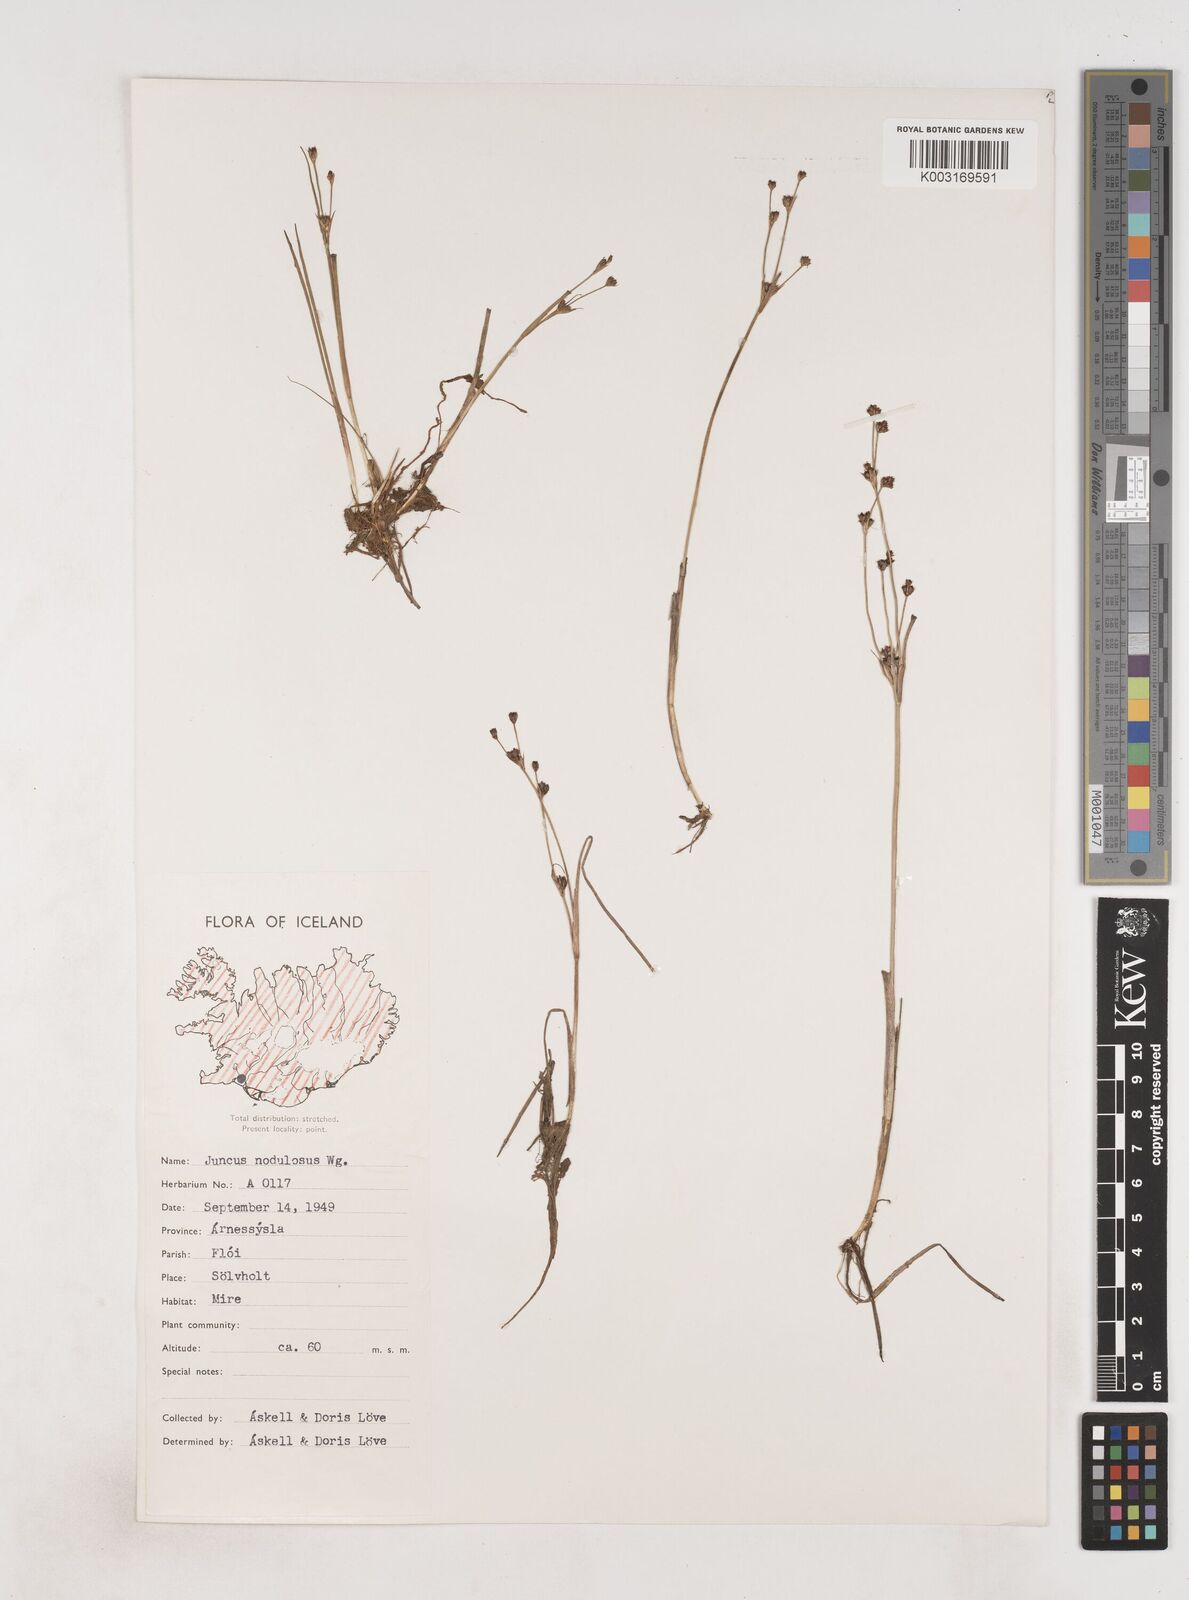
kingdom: Plantae
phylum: Tracheophyta
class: Liliopsida
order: Poales
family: Juncaceae
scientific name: Juncaceae
